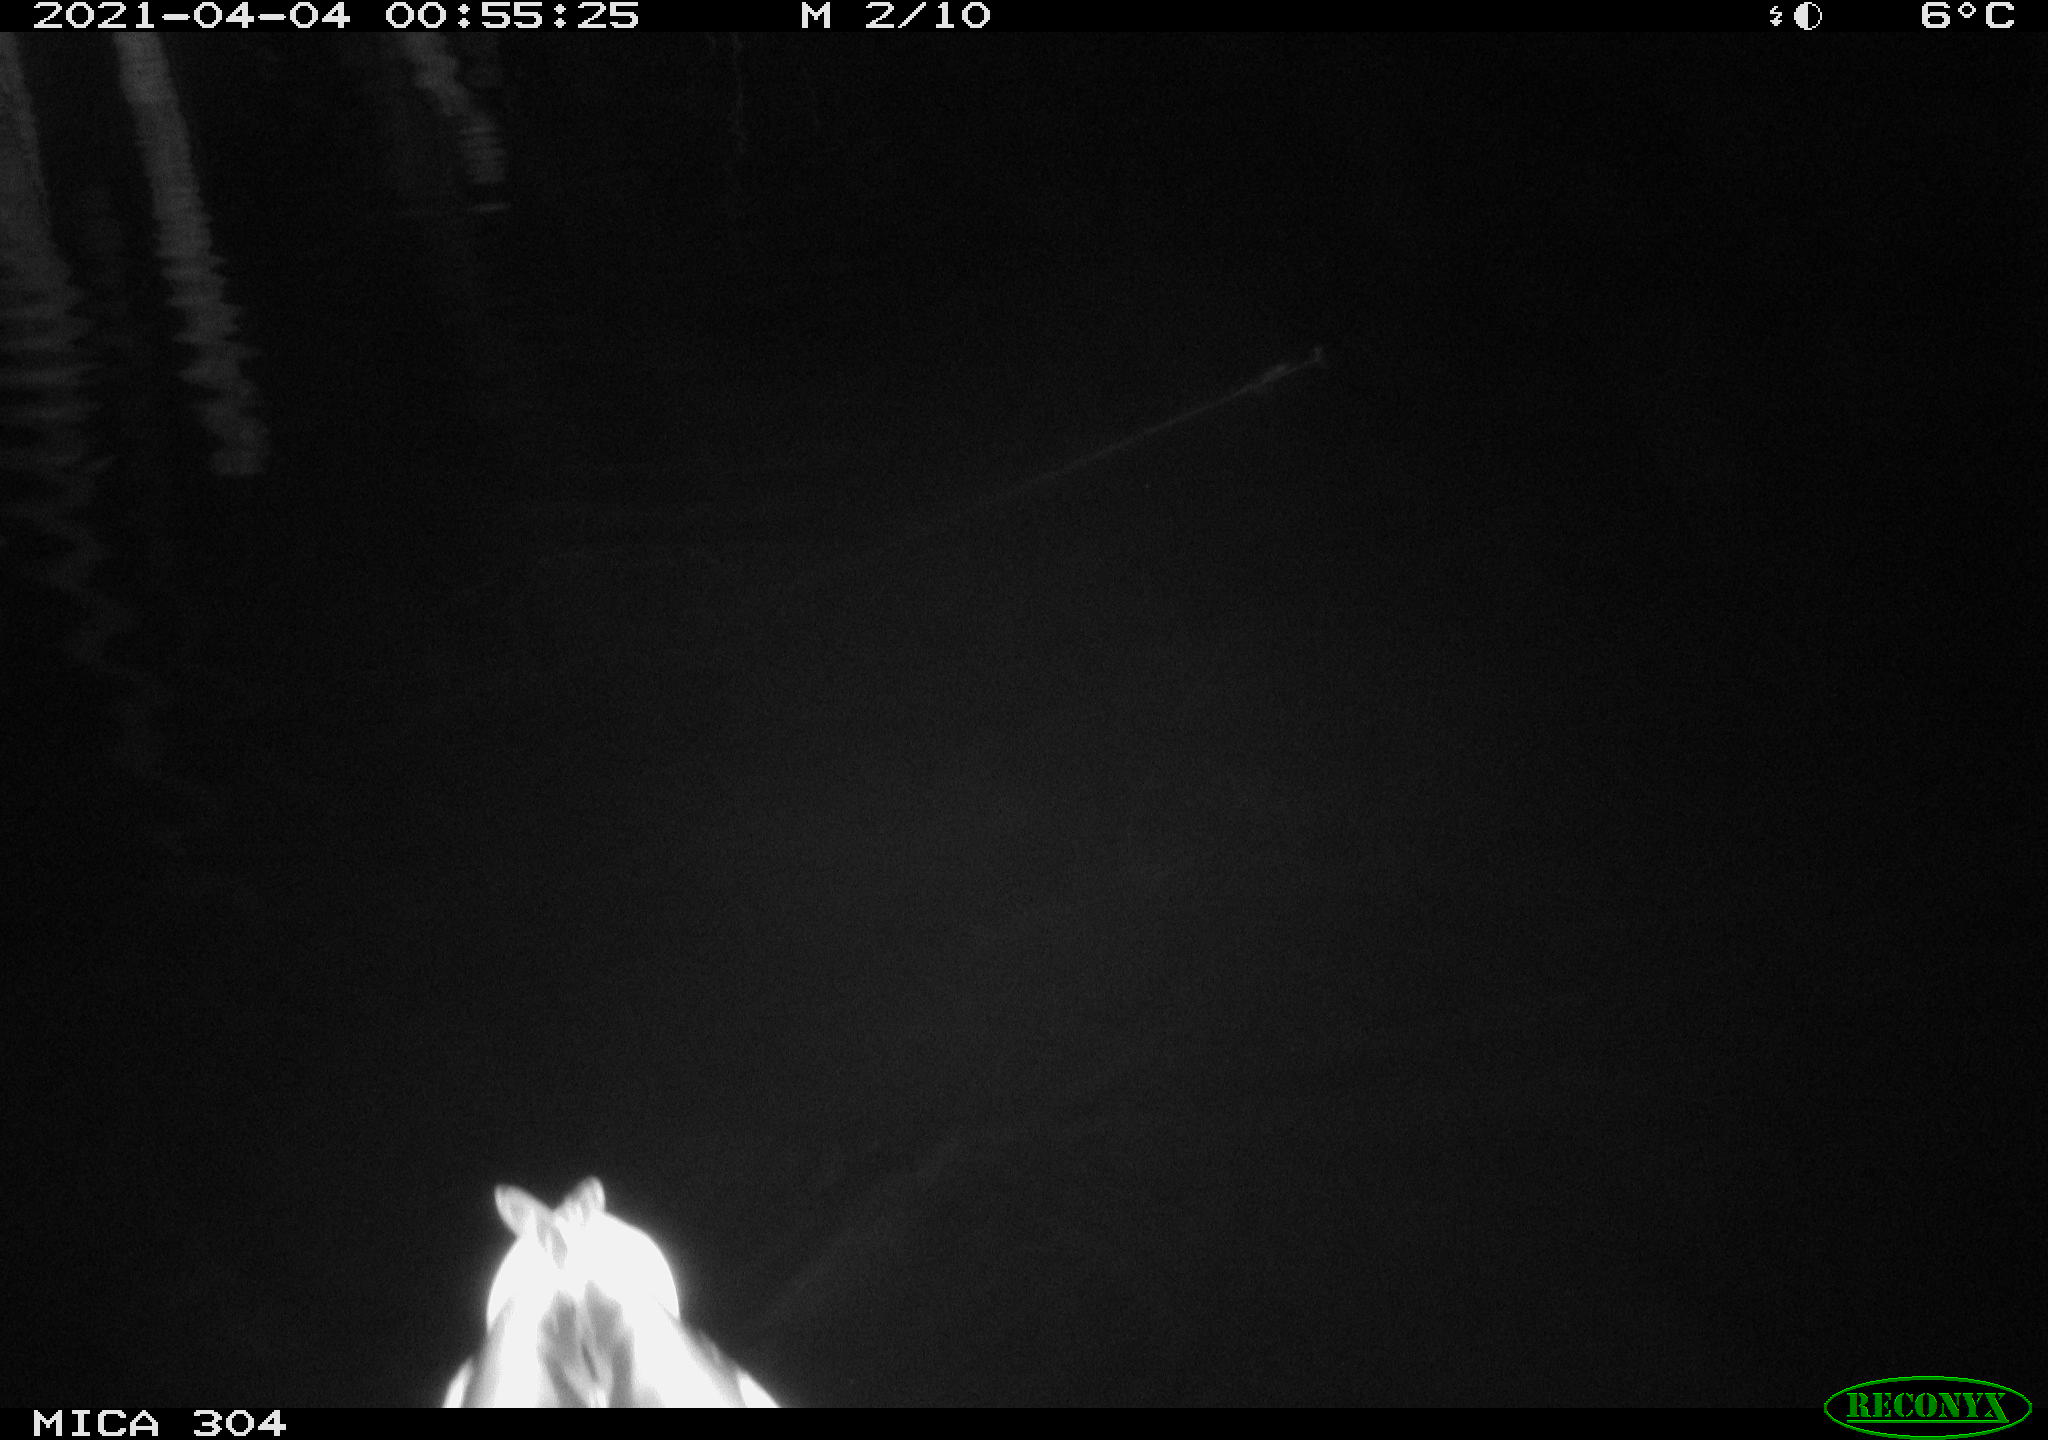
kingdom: Animalia
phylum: Chordata
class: Aves
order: Anseriformes
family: Anatidae
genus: Anas
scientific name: Anas
